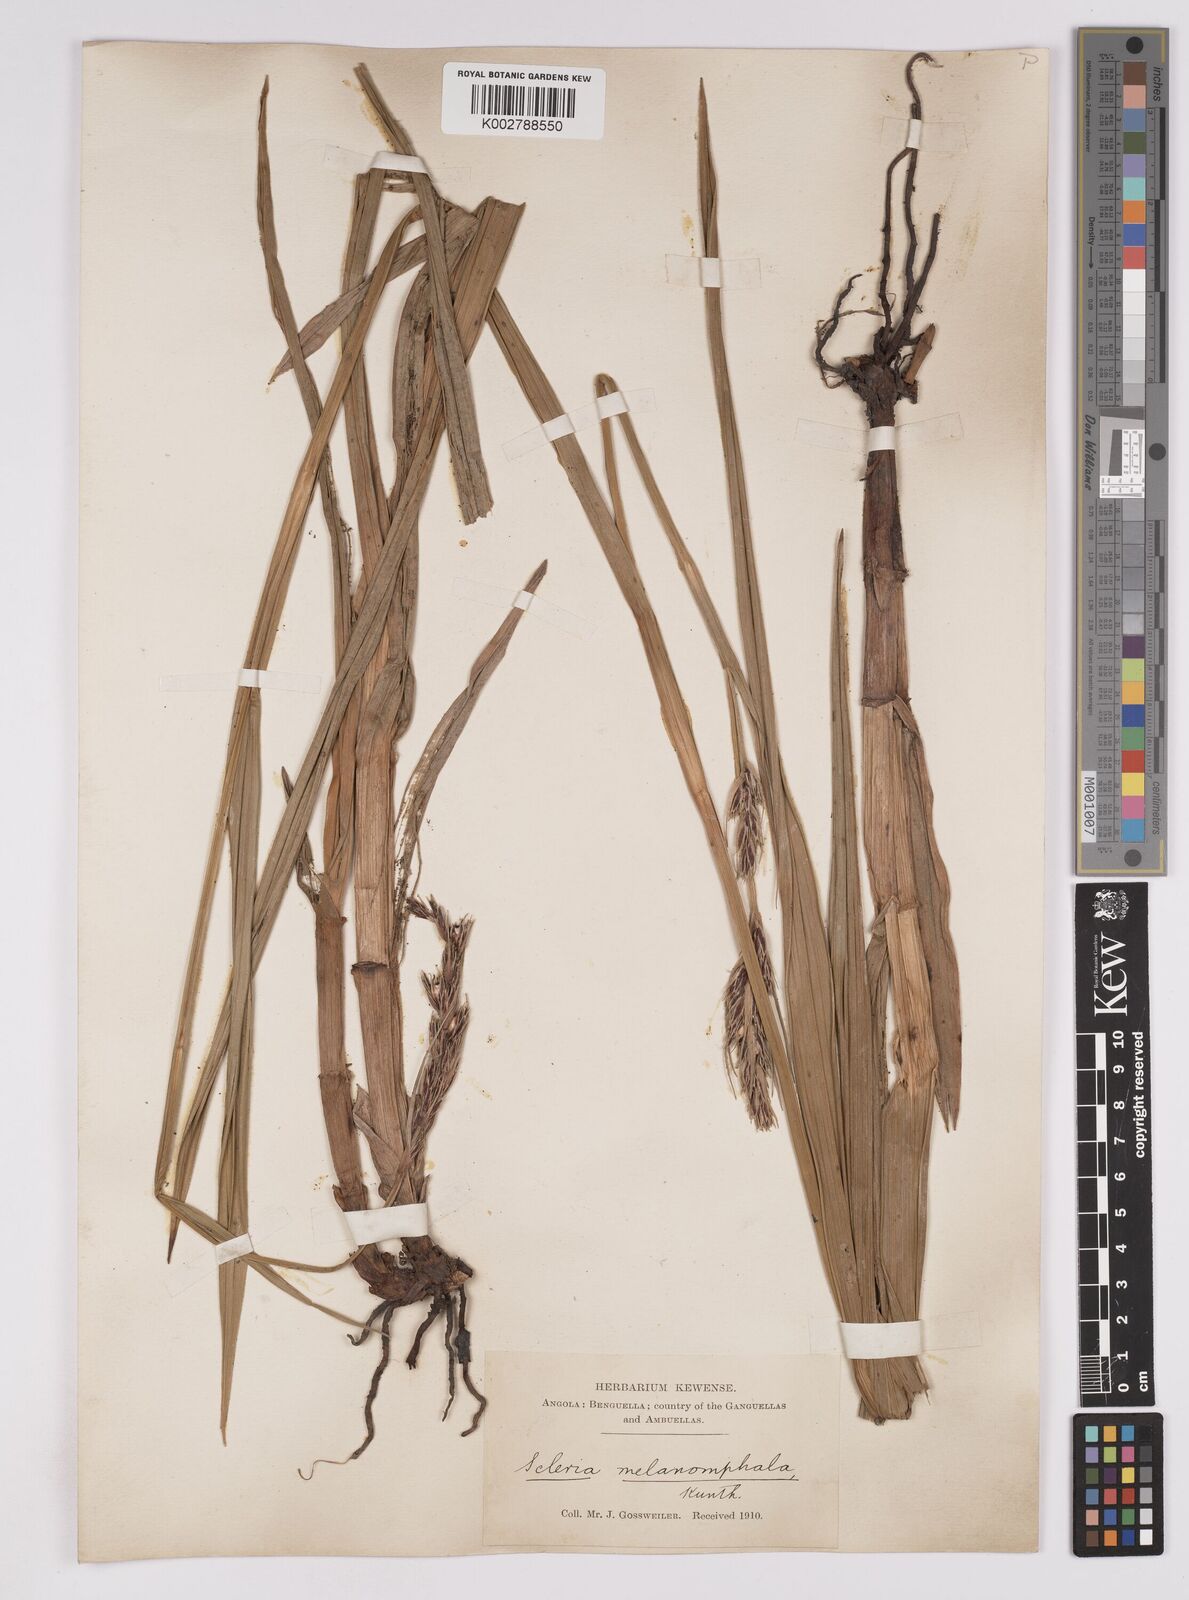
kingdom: Plantae
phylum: Tracheophyta
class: Liliopsida
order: Poales
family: Cyperaceae
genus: Scleria
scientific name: Scleria melanomphala
